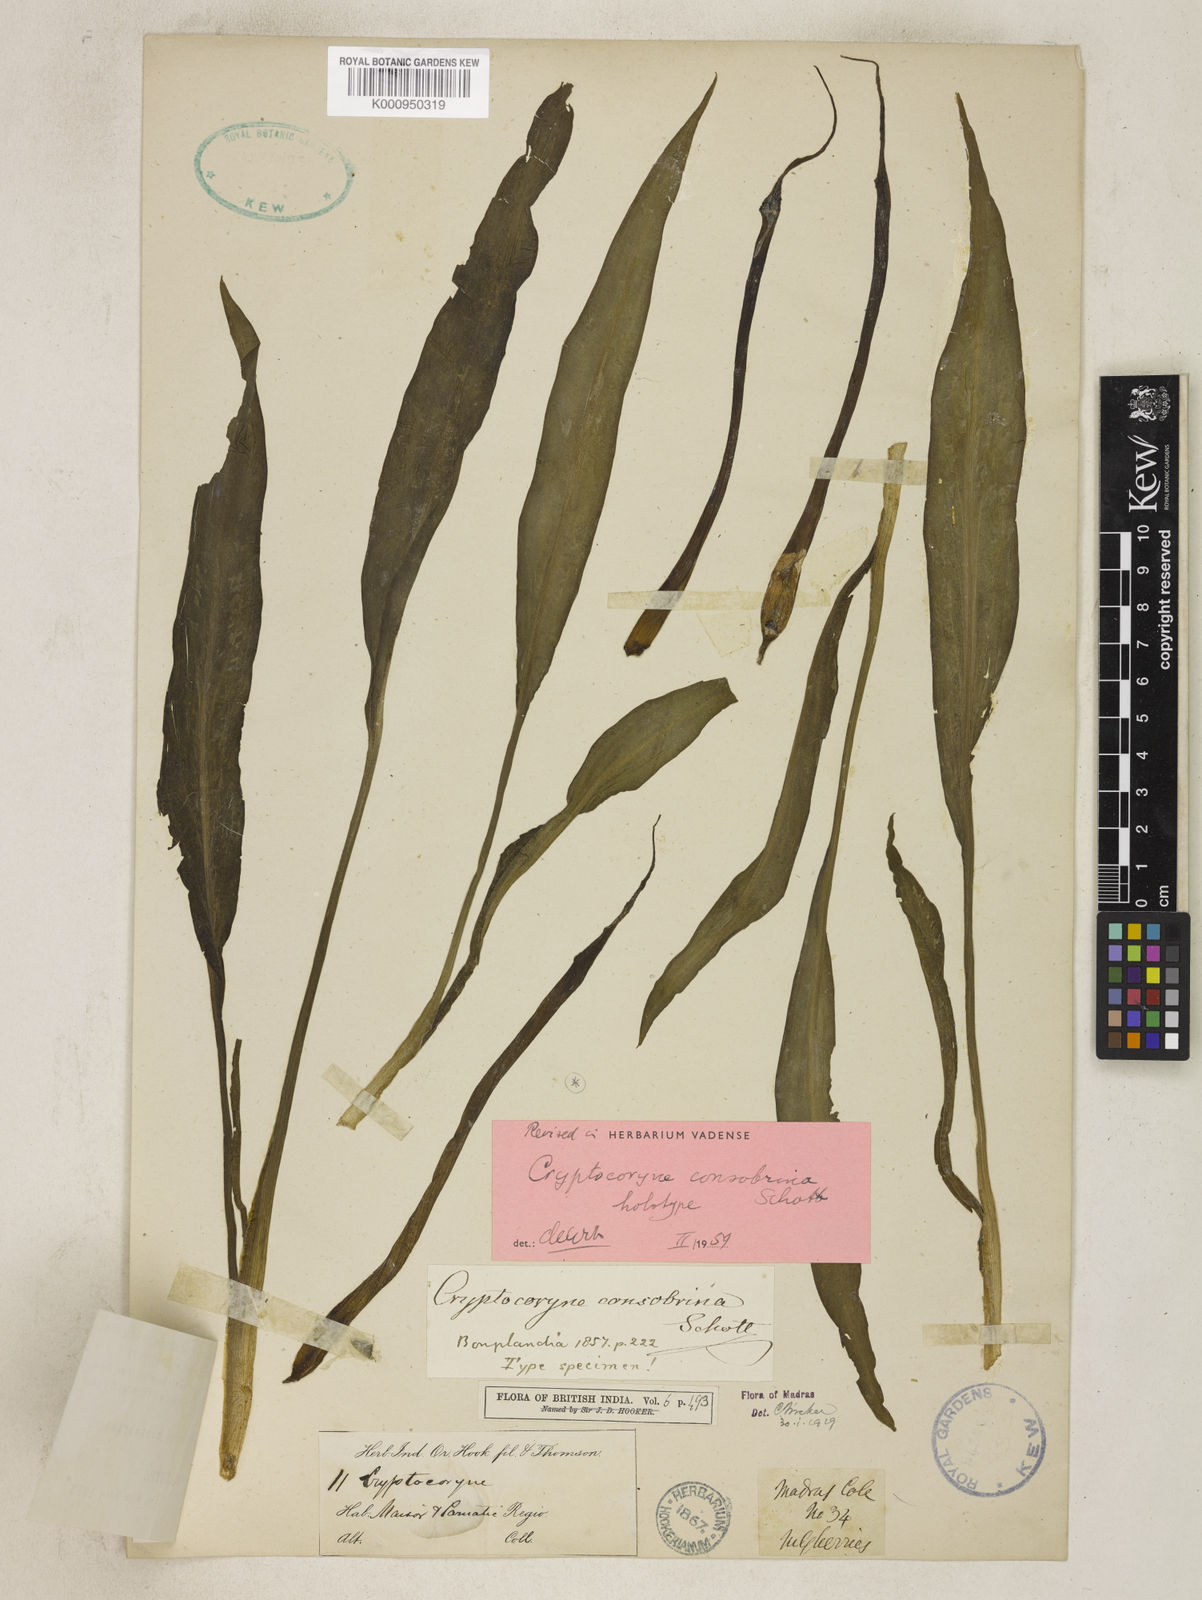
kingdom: Plantae
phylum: Tracheophyta
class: Liliopsida
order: Alismatales
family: Araceae
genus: Cryptocoryne
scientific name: Cryptocoryne consobrina
